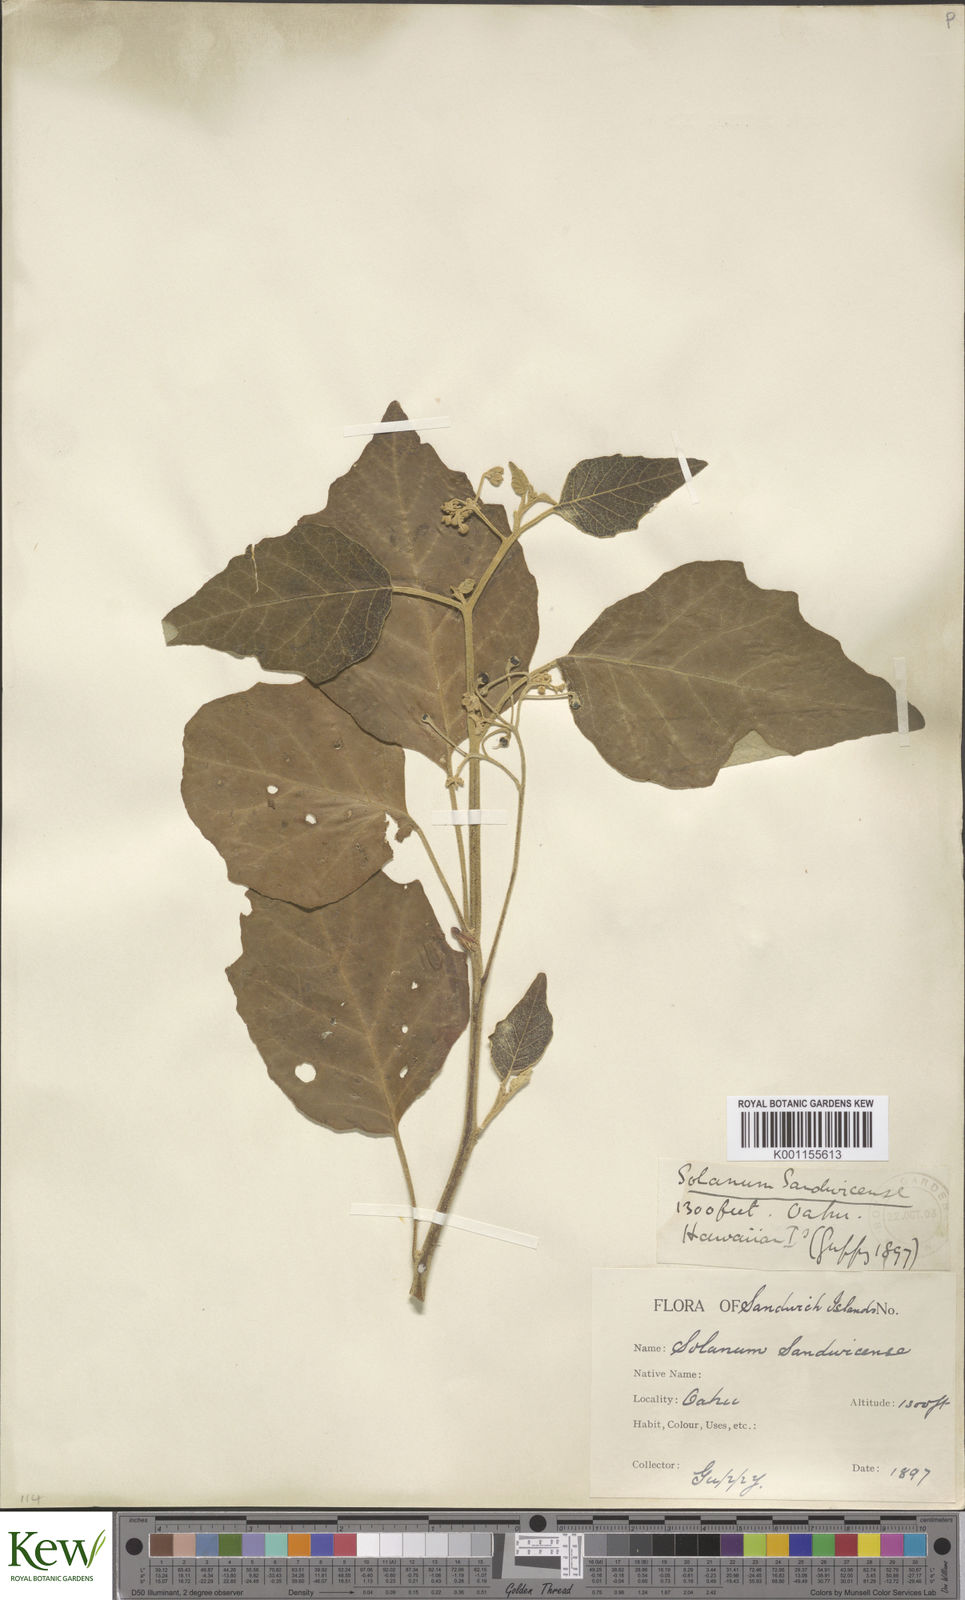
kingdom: Plantae
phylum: Tracheophyta
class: Magnoliopsida
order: Solanales
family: Solanaceae
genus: Solanum
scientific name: Solanum sandwicense
